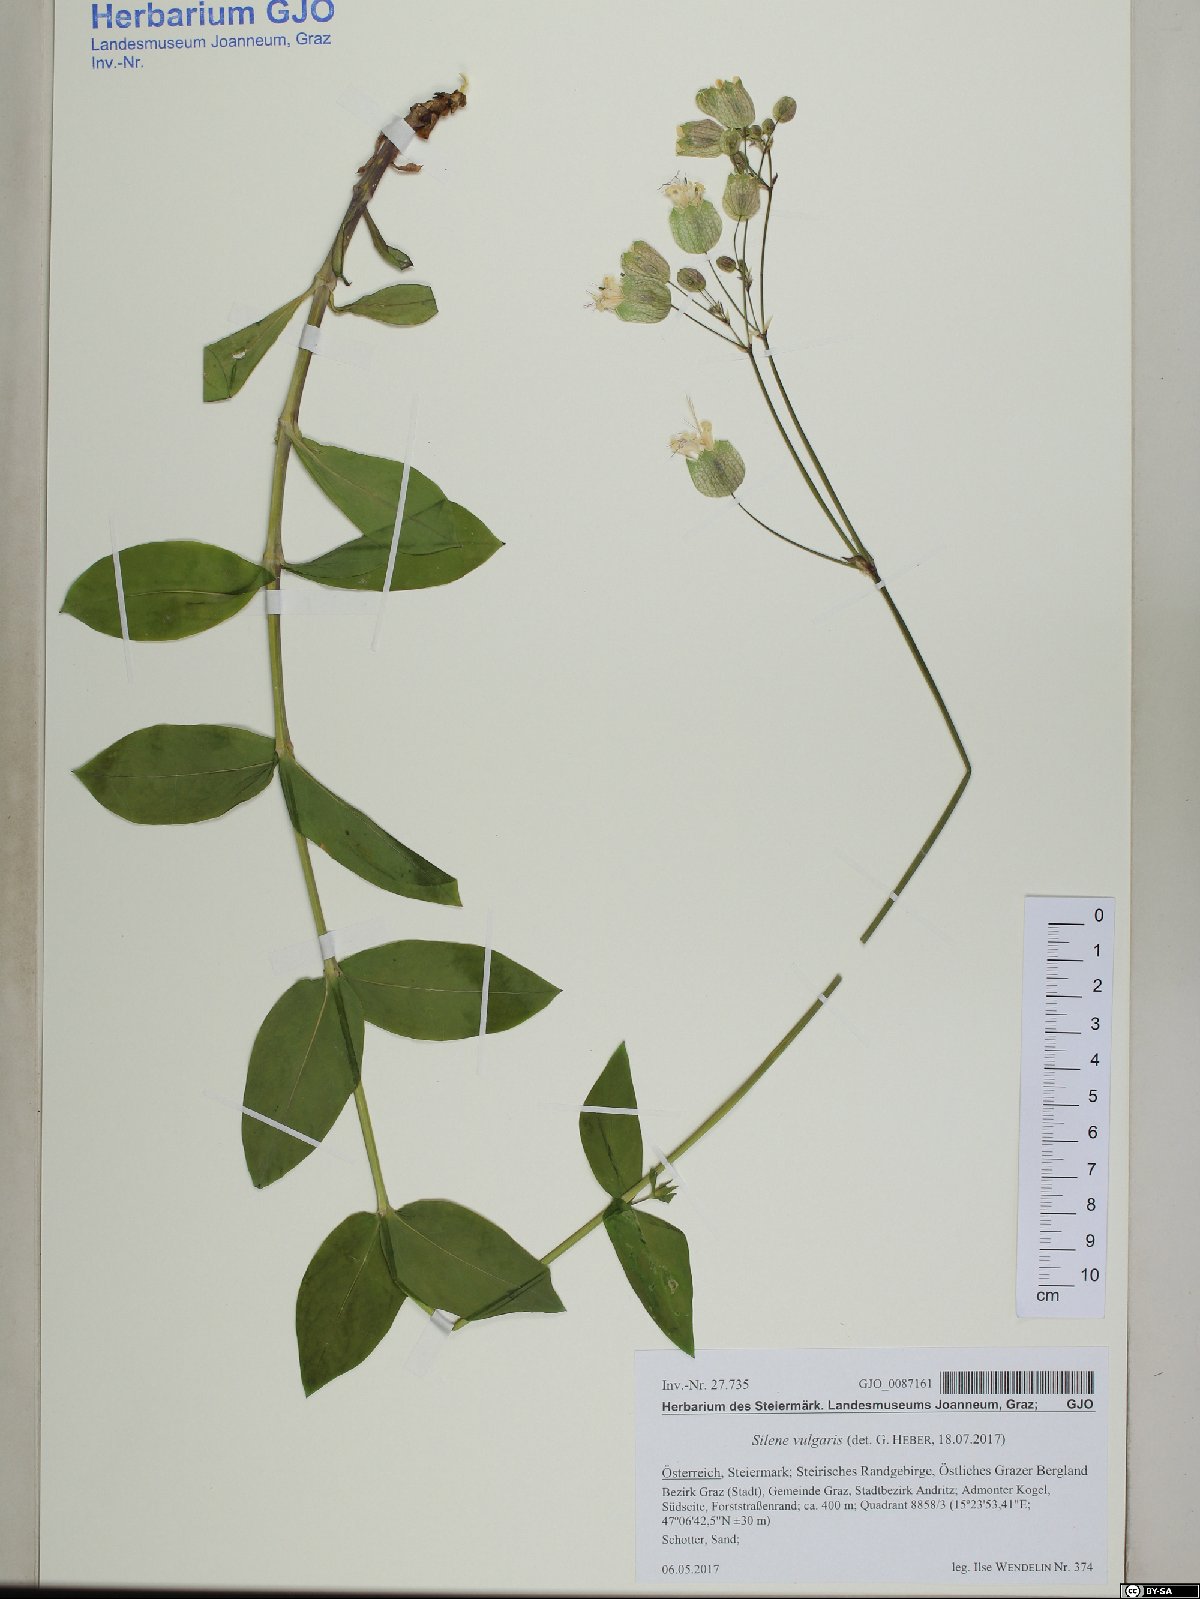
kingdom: Plantae
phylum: Tracheophyta
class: Magnoliopsida
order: Caryophyllales
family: Caryophyllaceae
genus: Silene
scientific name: Silene vulgaris
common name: Bladder campion
